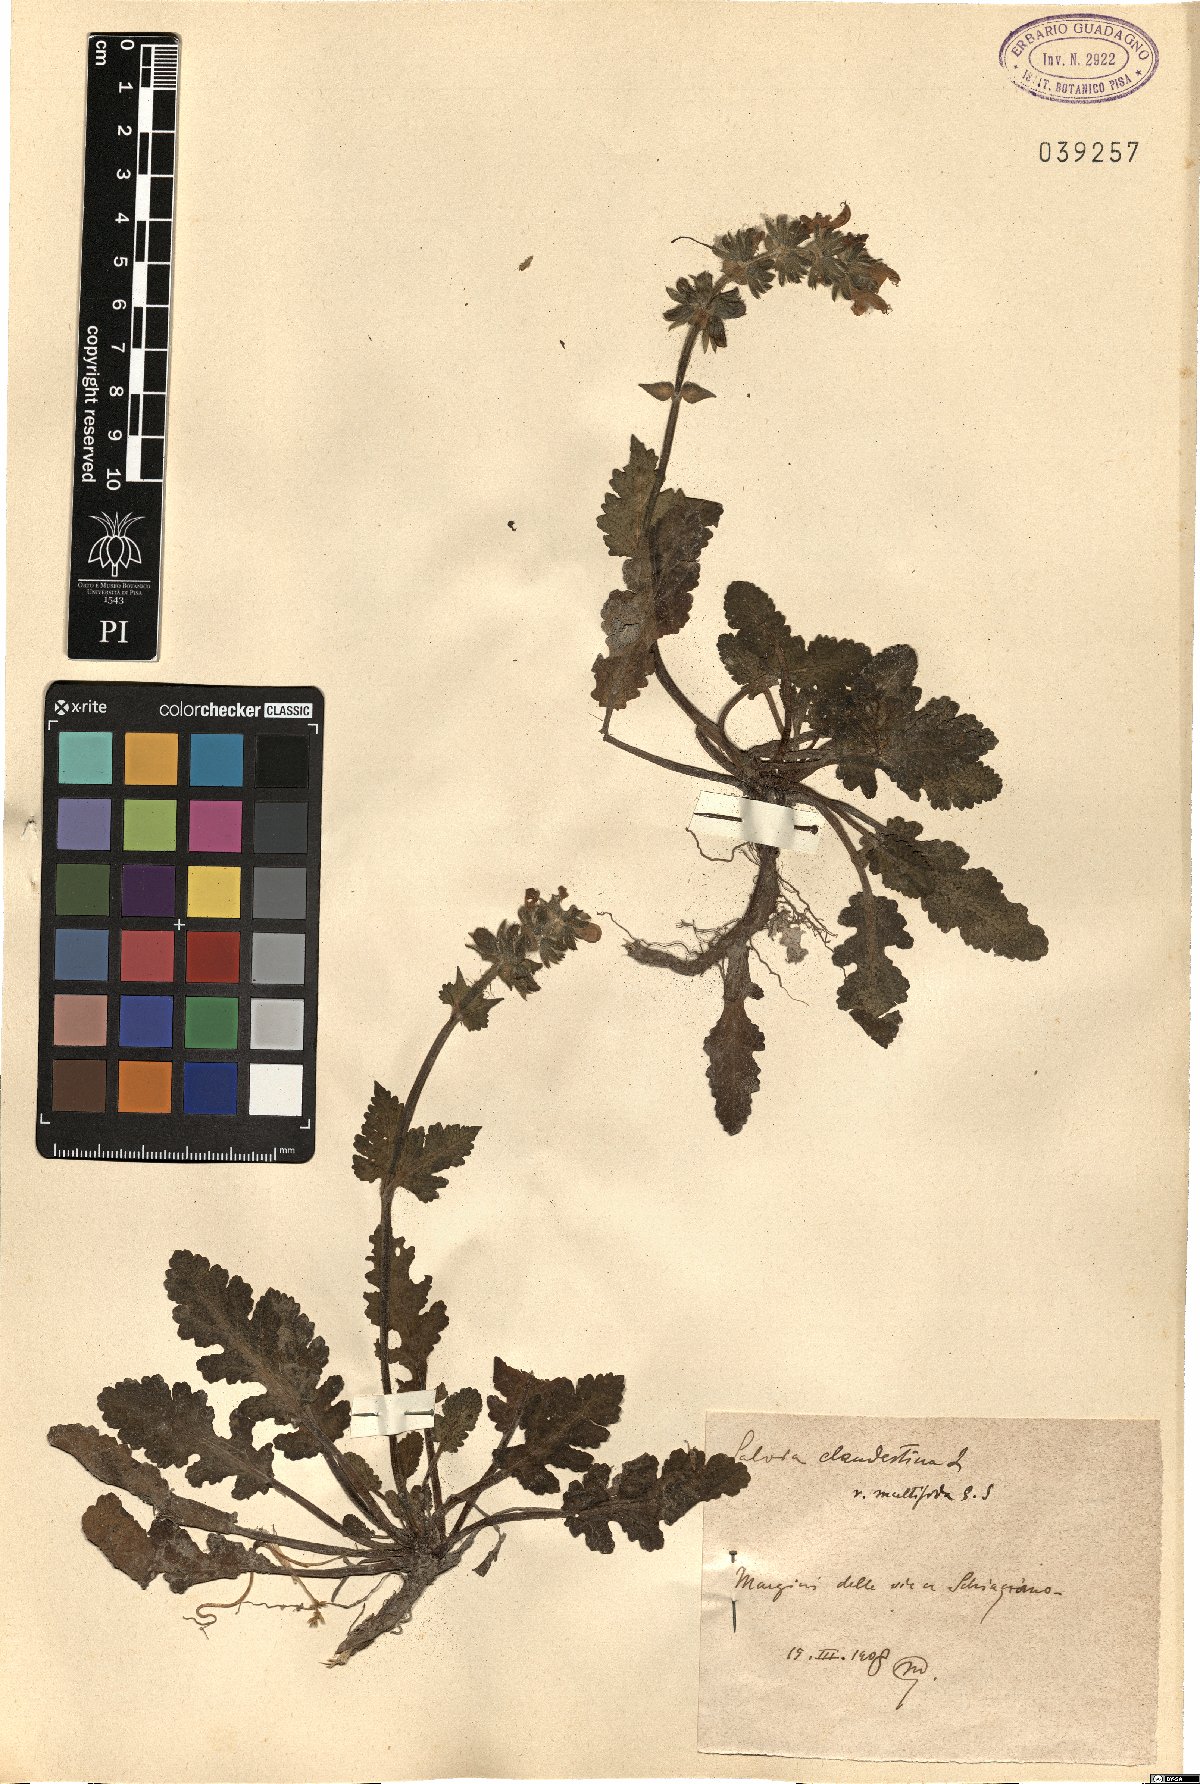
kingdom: Plantae
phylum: Tracheophyta
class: Magnoliopsida
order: Lamiales
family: Lamiaceae
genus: Salvia
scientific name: Salvia verbenaca
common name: Wild clary
